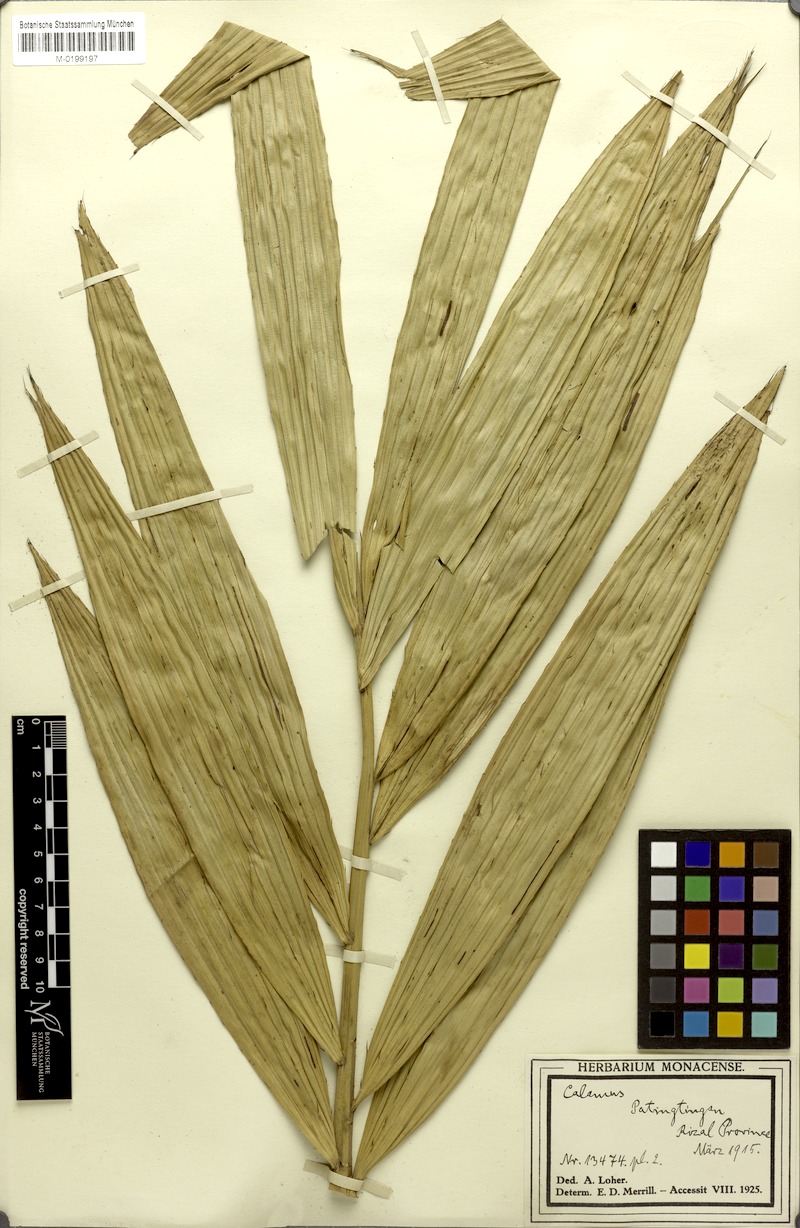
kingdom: Plantae
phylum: Tracheophyta
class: Liliopsida
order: Arecales
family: Arecaceae
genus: Calamus
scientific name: Calamus
